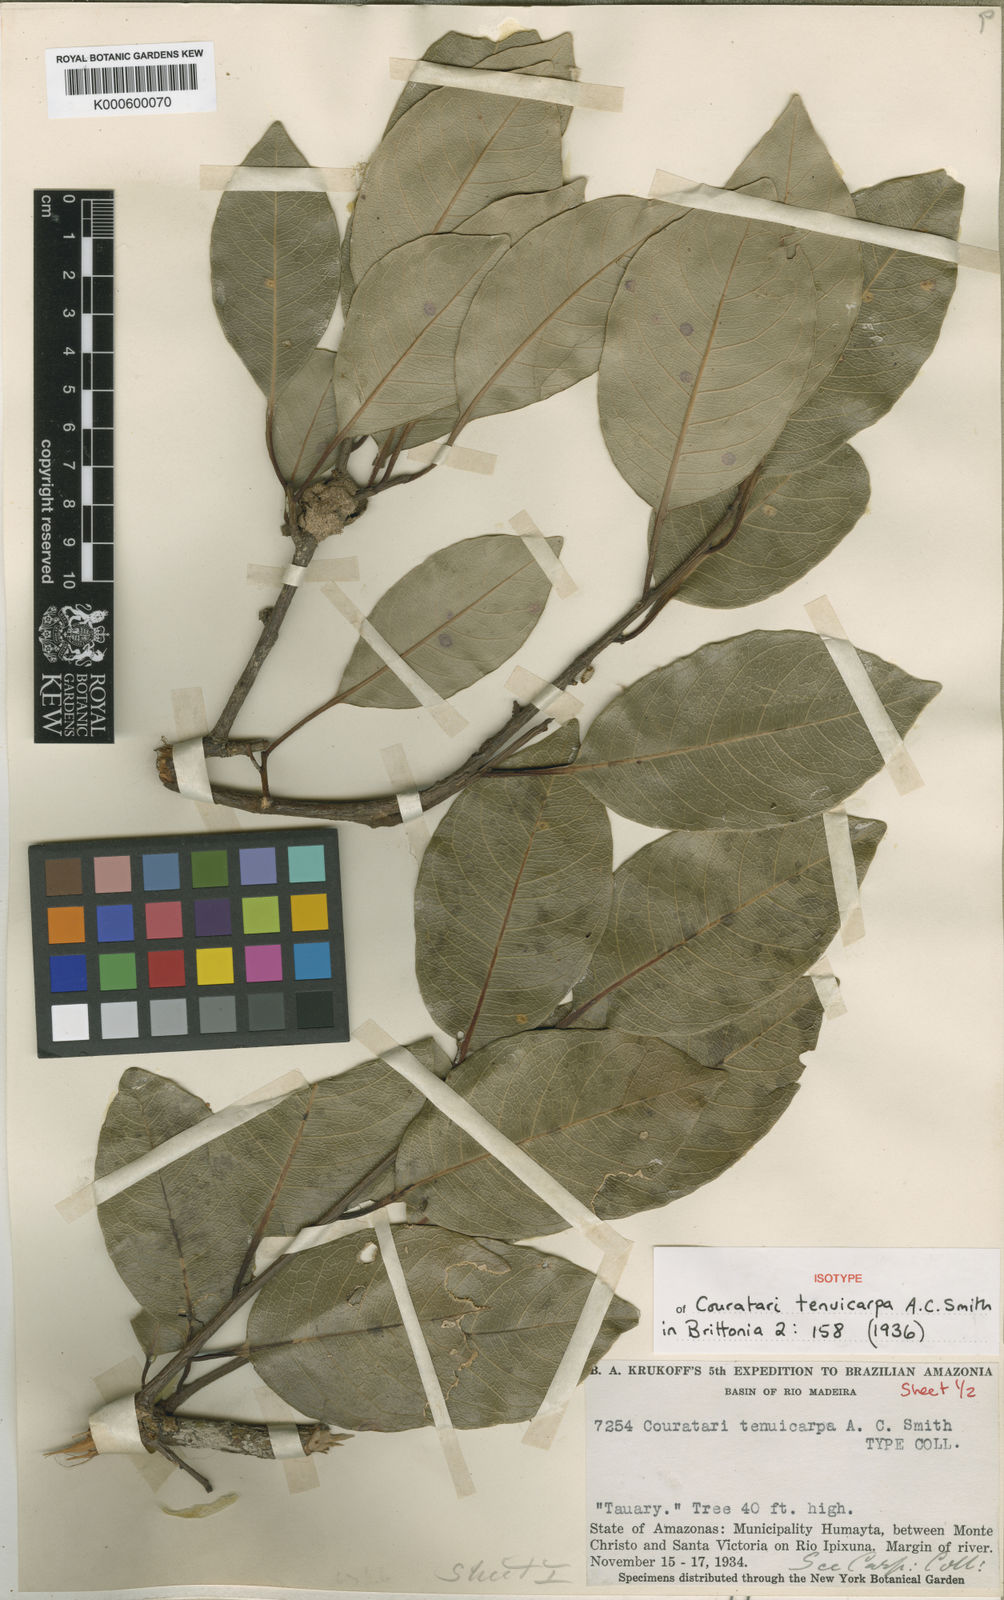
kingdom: Plantae
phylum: Tracheophyta
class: Magnoliopsida
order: Ericales
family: Lecythidaceae
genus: Couratari
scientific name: Couratari tenuicarpa
